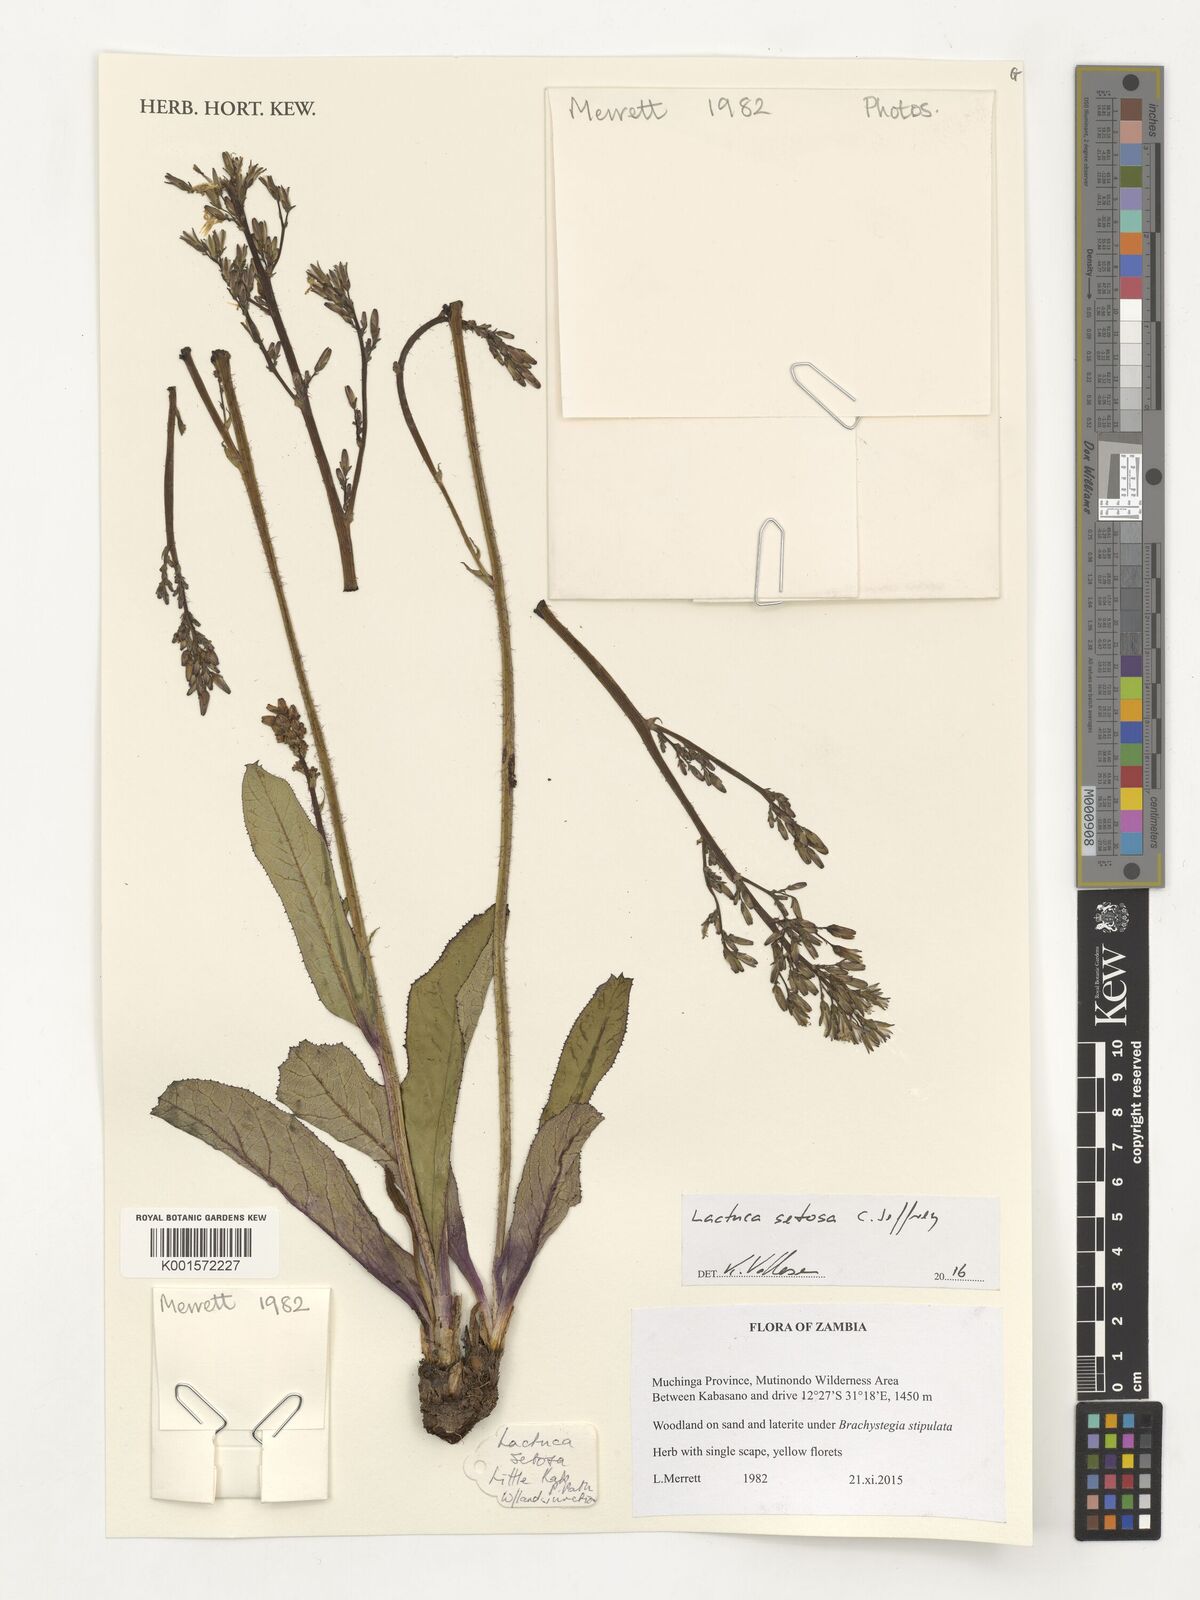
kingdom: Plantae
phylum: Tracheophyta
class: Magnoliopsida
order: Asterales
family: Asteraceae
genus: Lactuca
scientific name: Lactuca setosa
